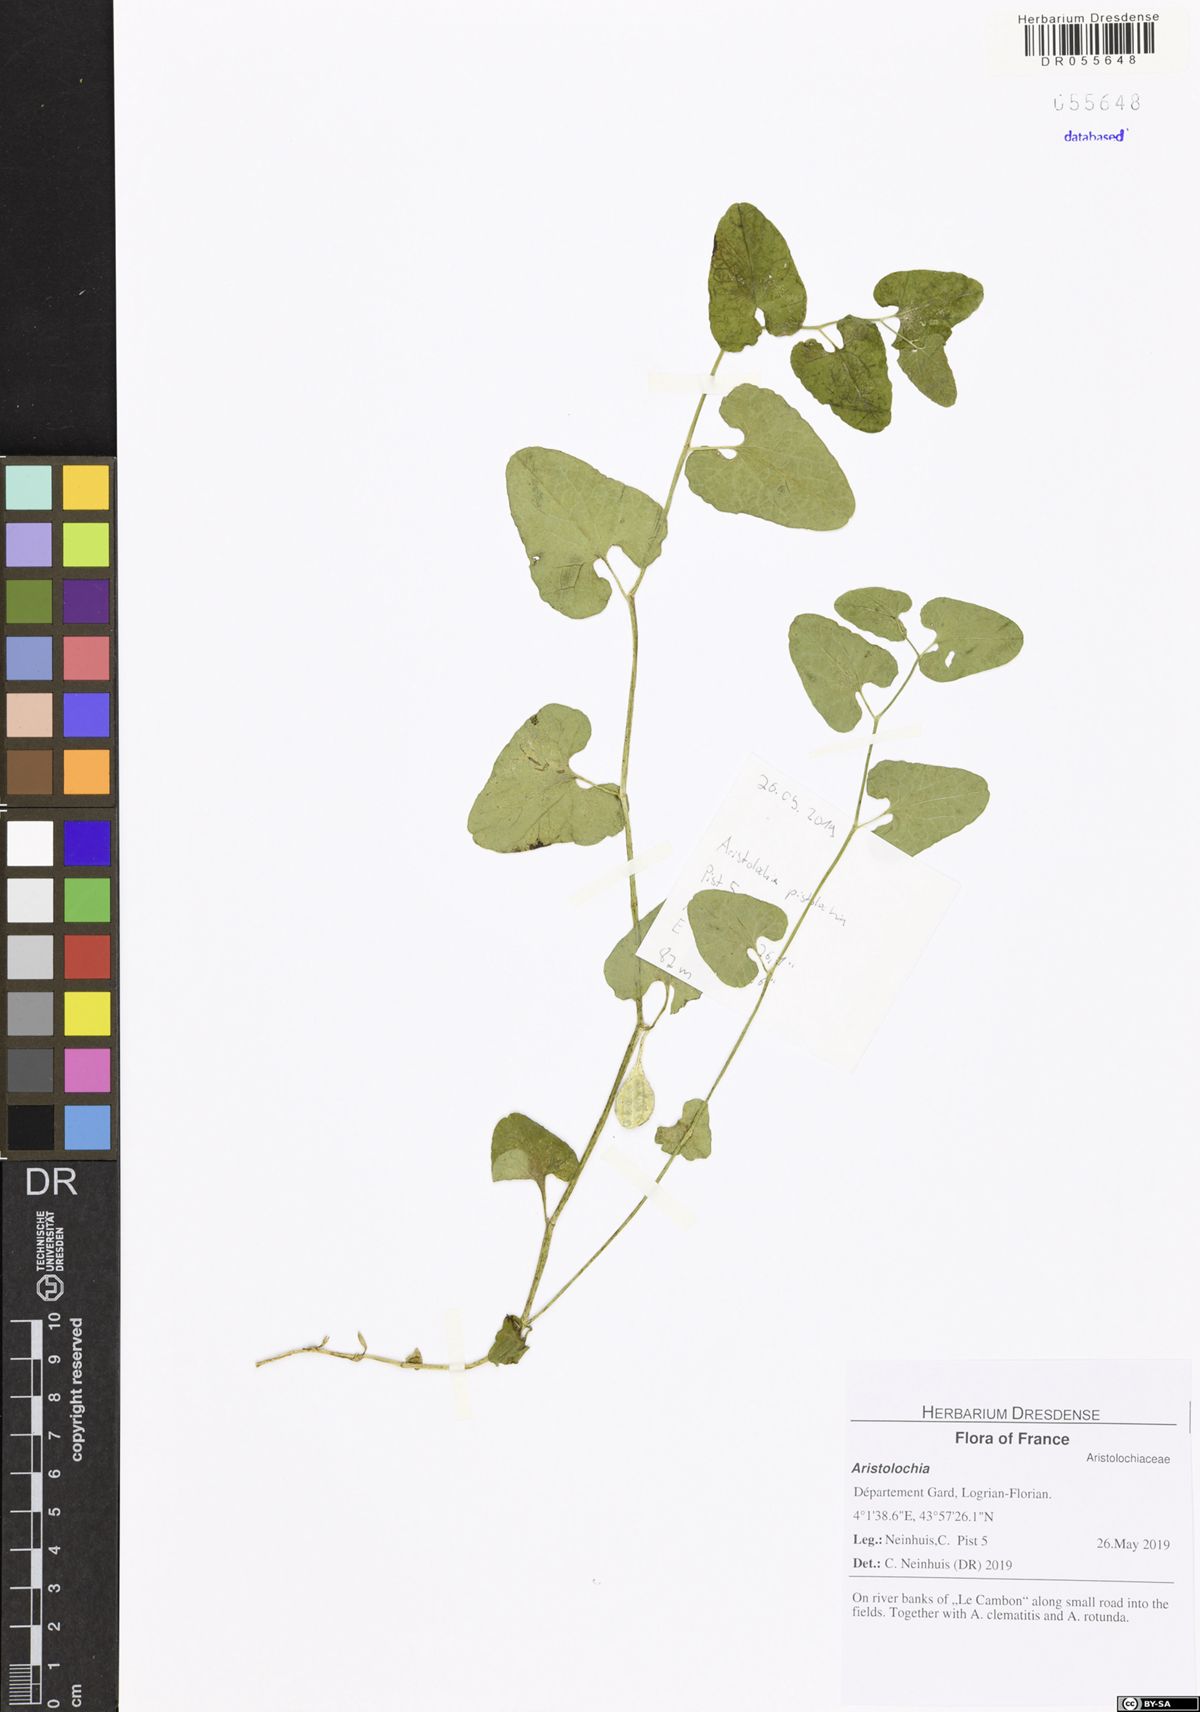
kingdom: Plantae
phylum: Tracheophyta
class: Magnoliopsida
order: Piperales
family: Aristolochiaceae
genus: Aristolochia
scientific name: Aristolochia
